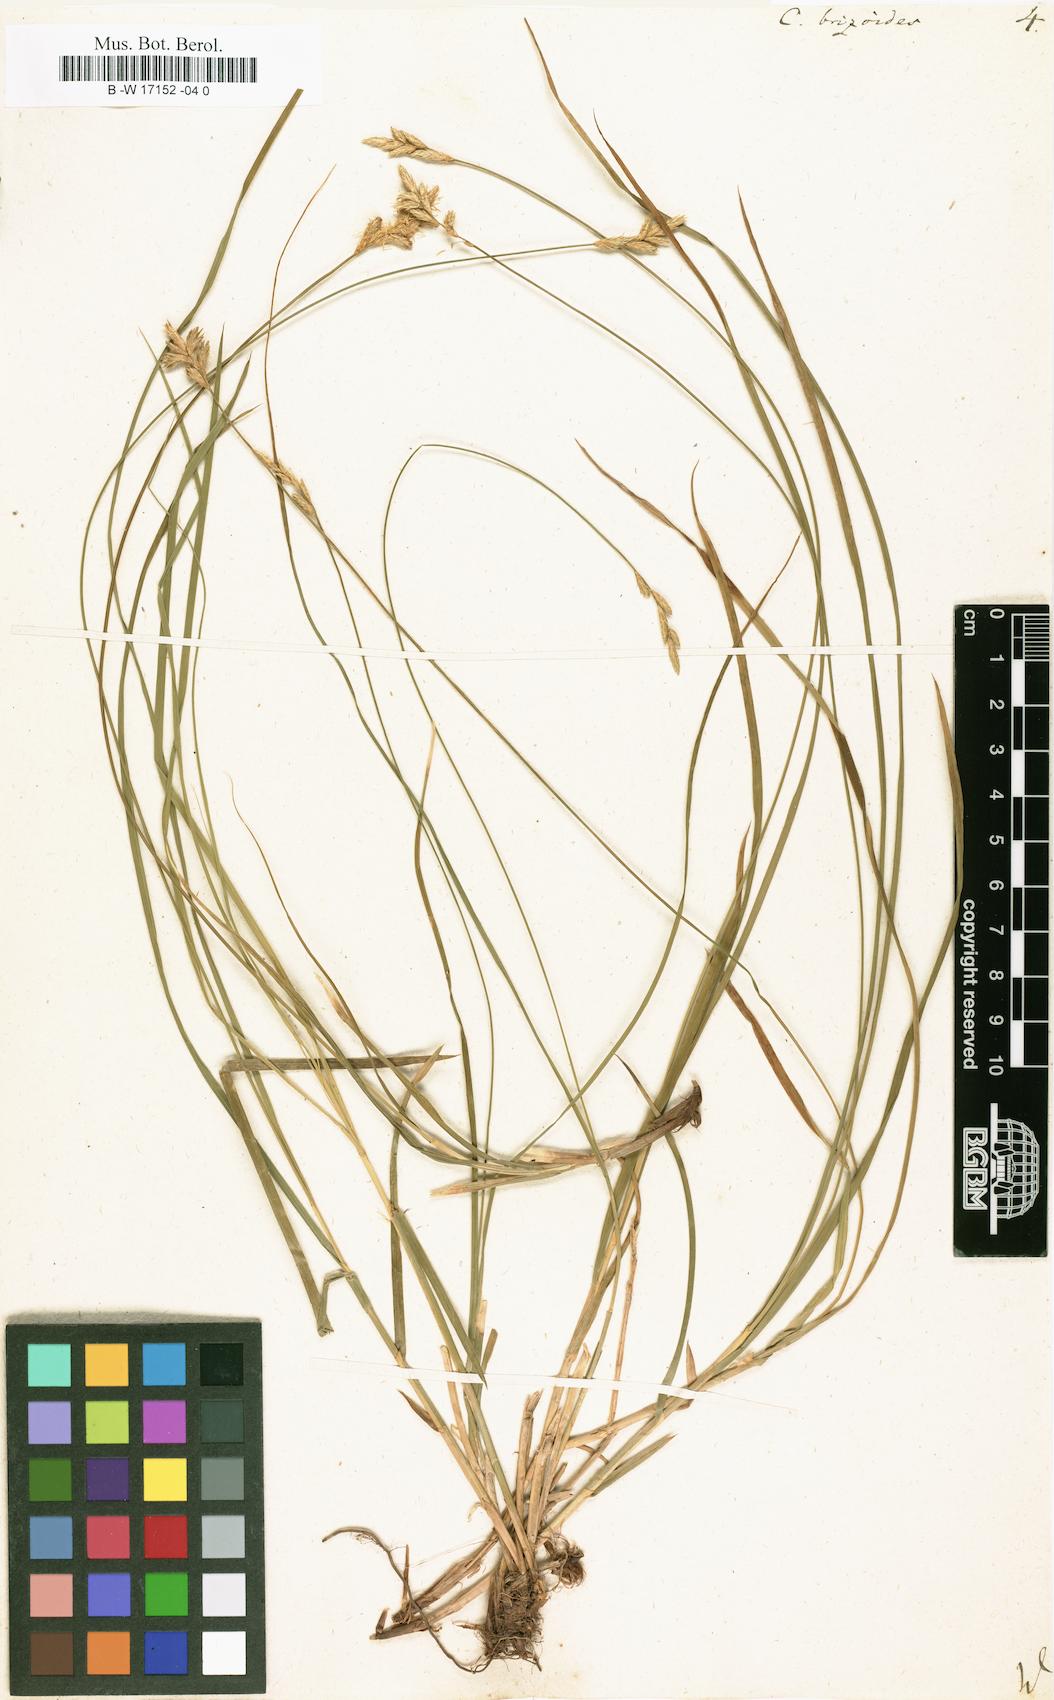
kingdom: Plantae
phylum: Tracheophyta
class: Liliopsida
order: Poales
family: Cyperaceae
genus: Carex
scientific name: Carex brizoides
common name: Quaking-grass sedge
